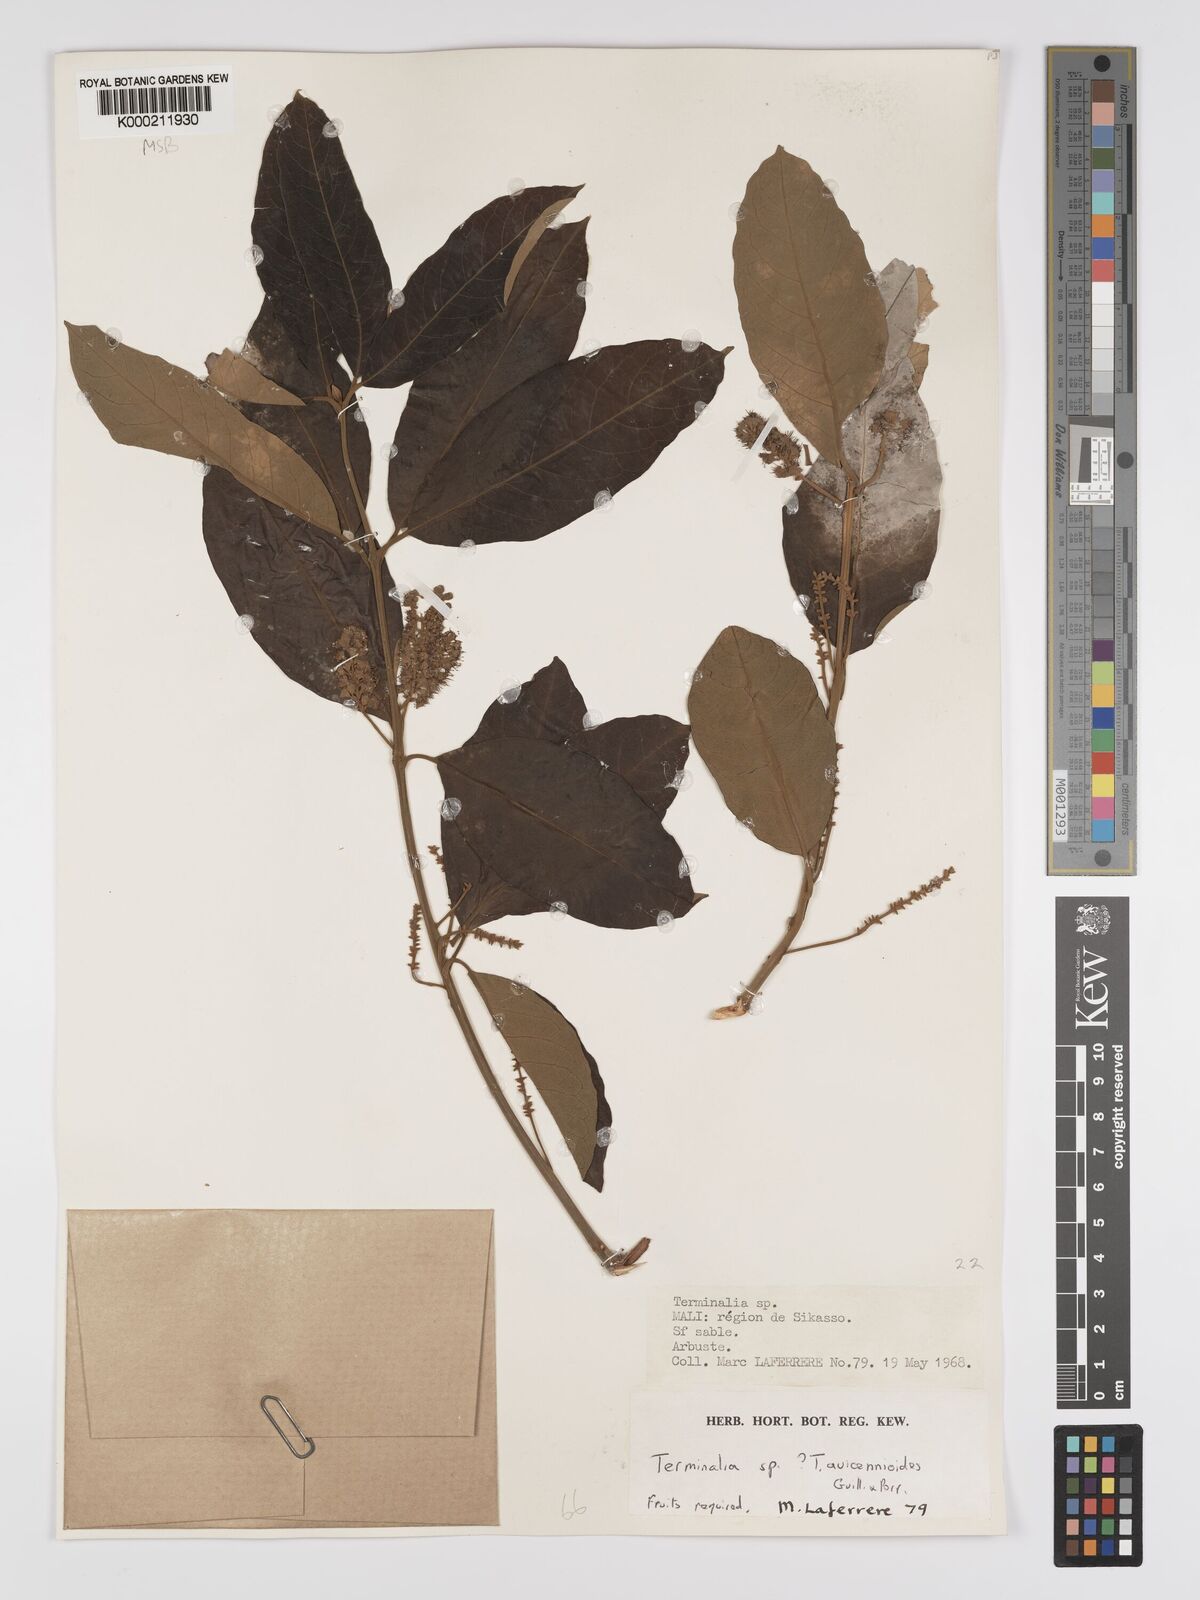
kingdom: Plantae
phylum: Tracheophyta
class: Magnoliopsida
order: Myrtales
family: Combretaceae
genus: Terminalia
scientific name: Terminalia avicennioides
